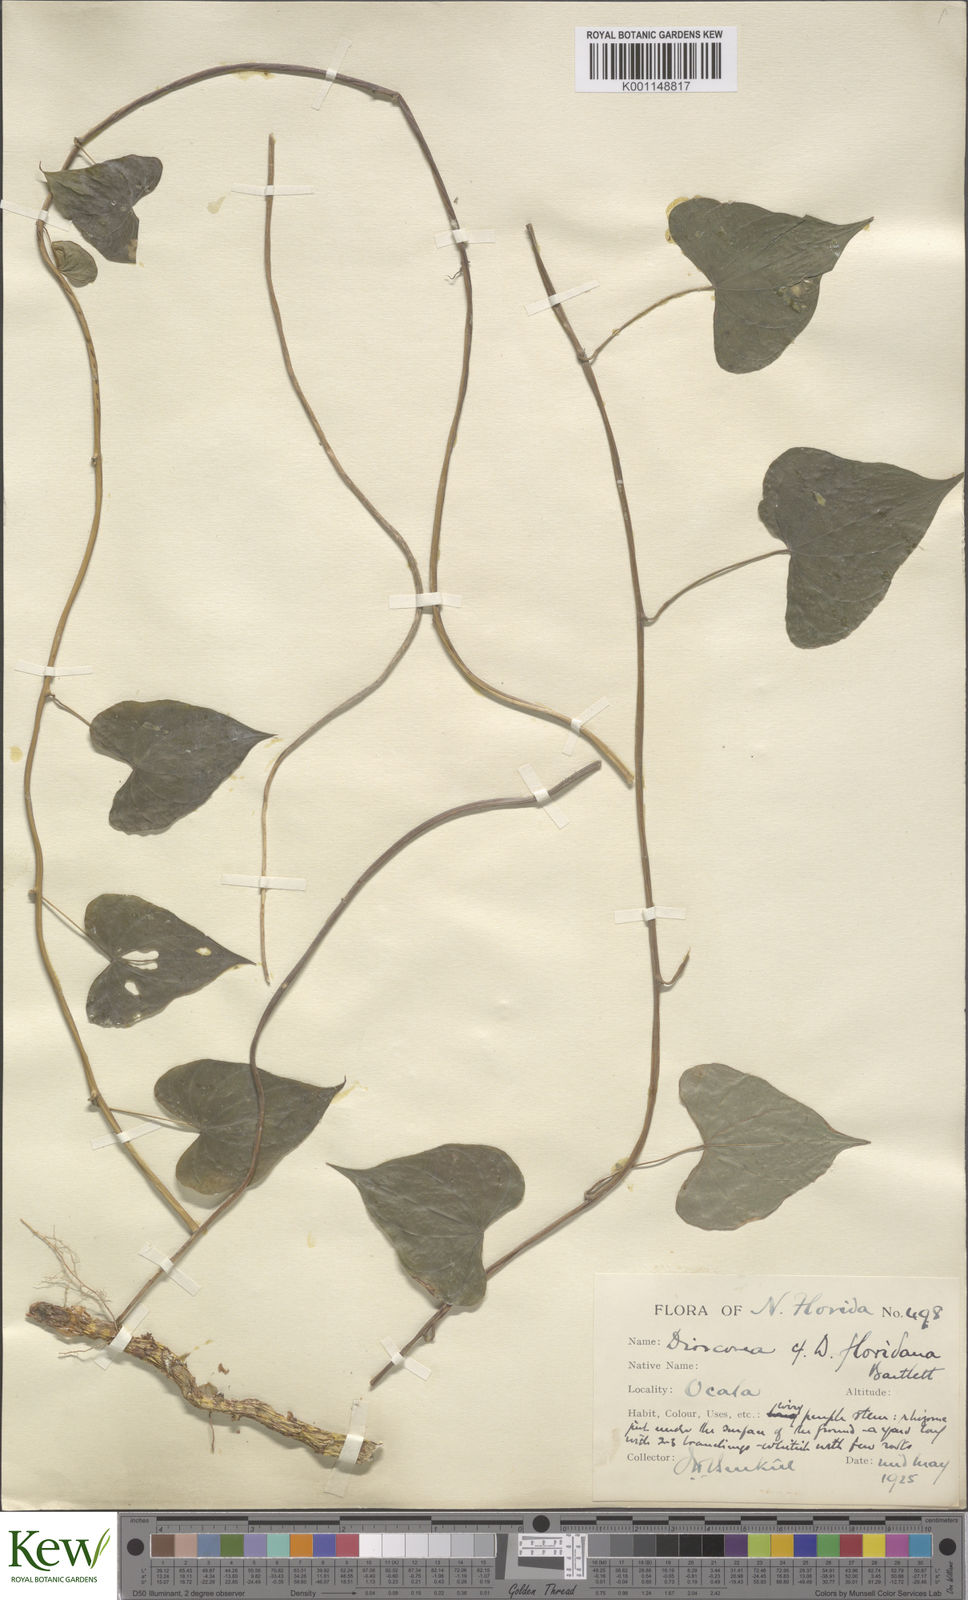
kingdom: Plantae
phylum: Tracheophyta
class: Liliopsida
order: Dioscoreales
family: Dioscoreaceae
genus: Dioscorea
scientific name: Dioscorea villosa
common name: Wild yam
